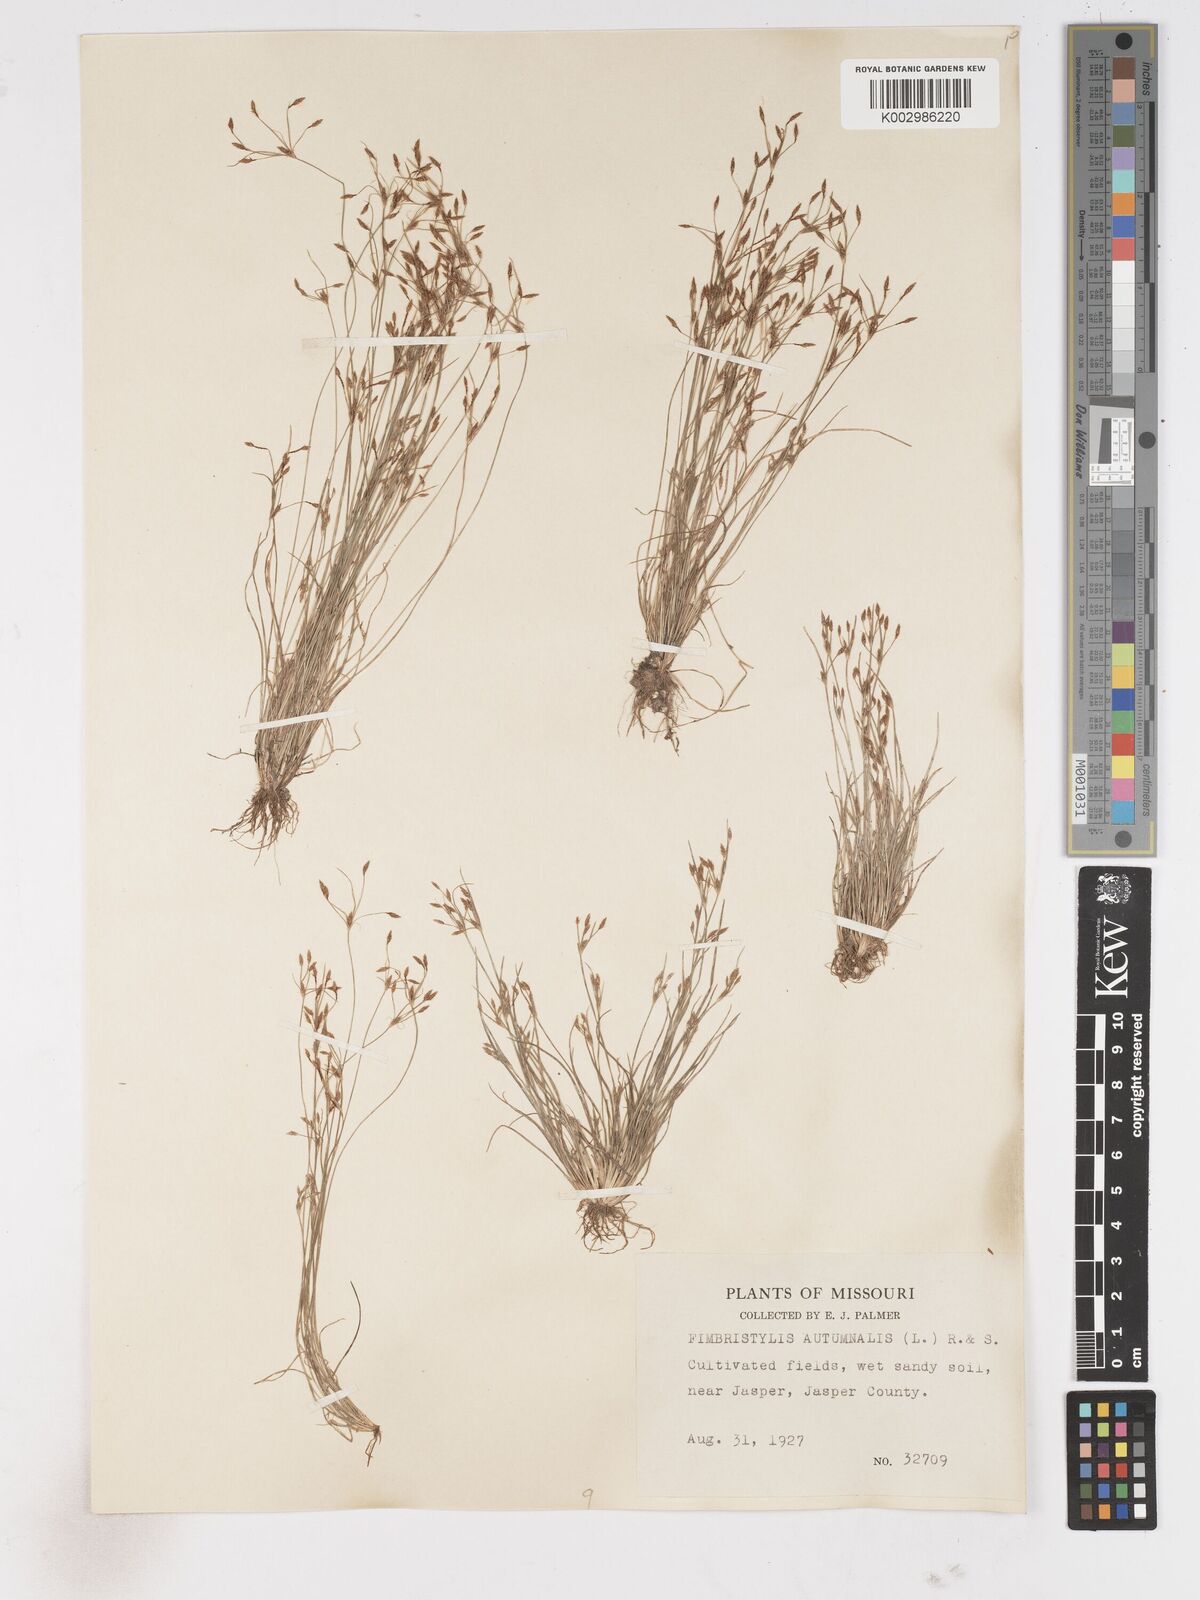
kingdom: Plantae
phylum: Tracheophyta
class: Liliopsida
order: Poales
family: Cyperaceae
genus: Fimbristylis
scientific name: Fimbristylis autumnalis
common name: Slender fimbristylis
